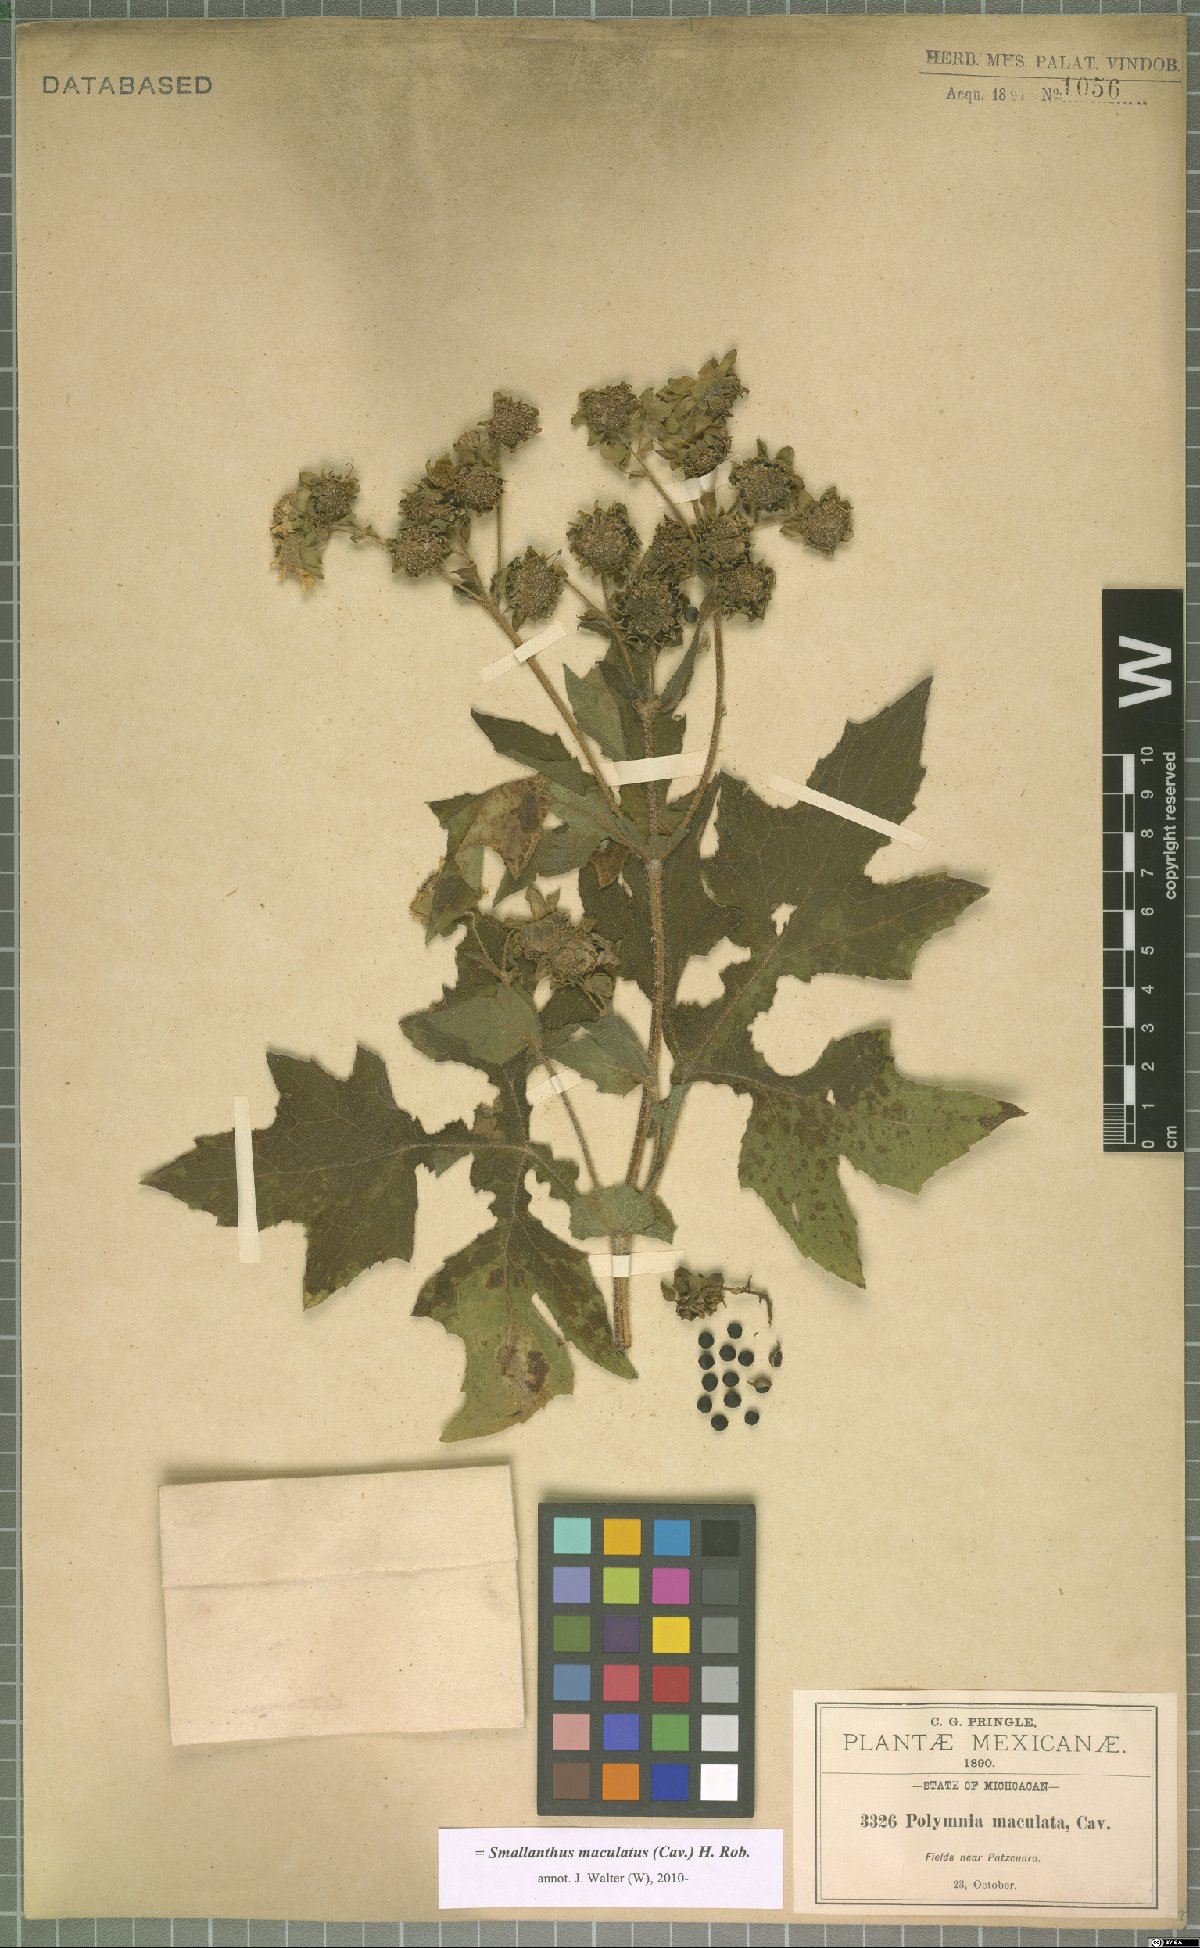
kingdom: Plantae
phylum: Tracheophyta
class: Magnoliopsida
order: Asterales
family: Asteraceae
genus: Smallanthus
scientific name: Smallanthus maculatus
